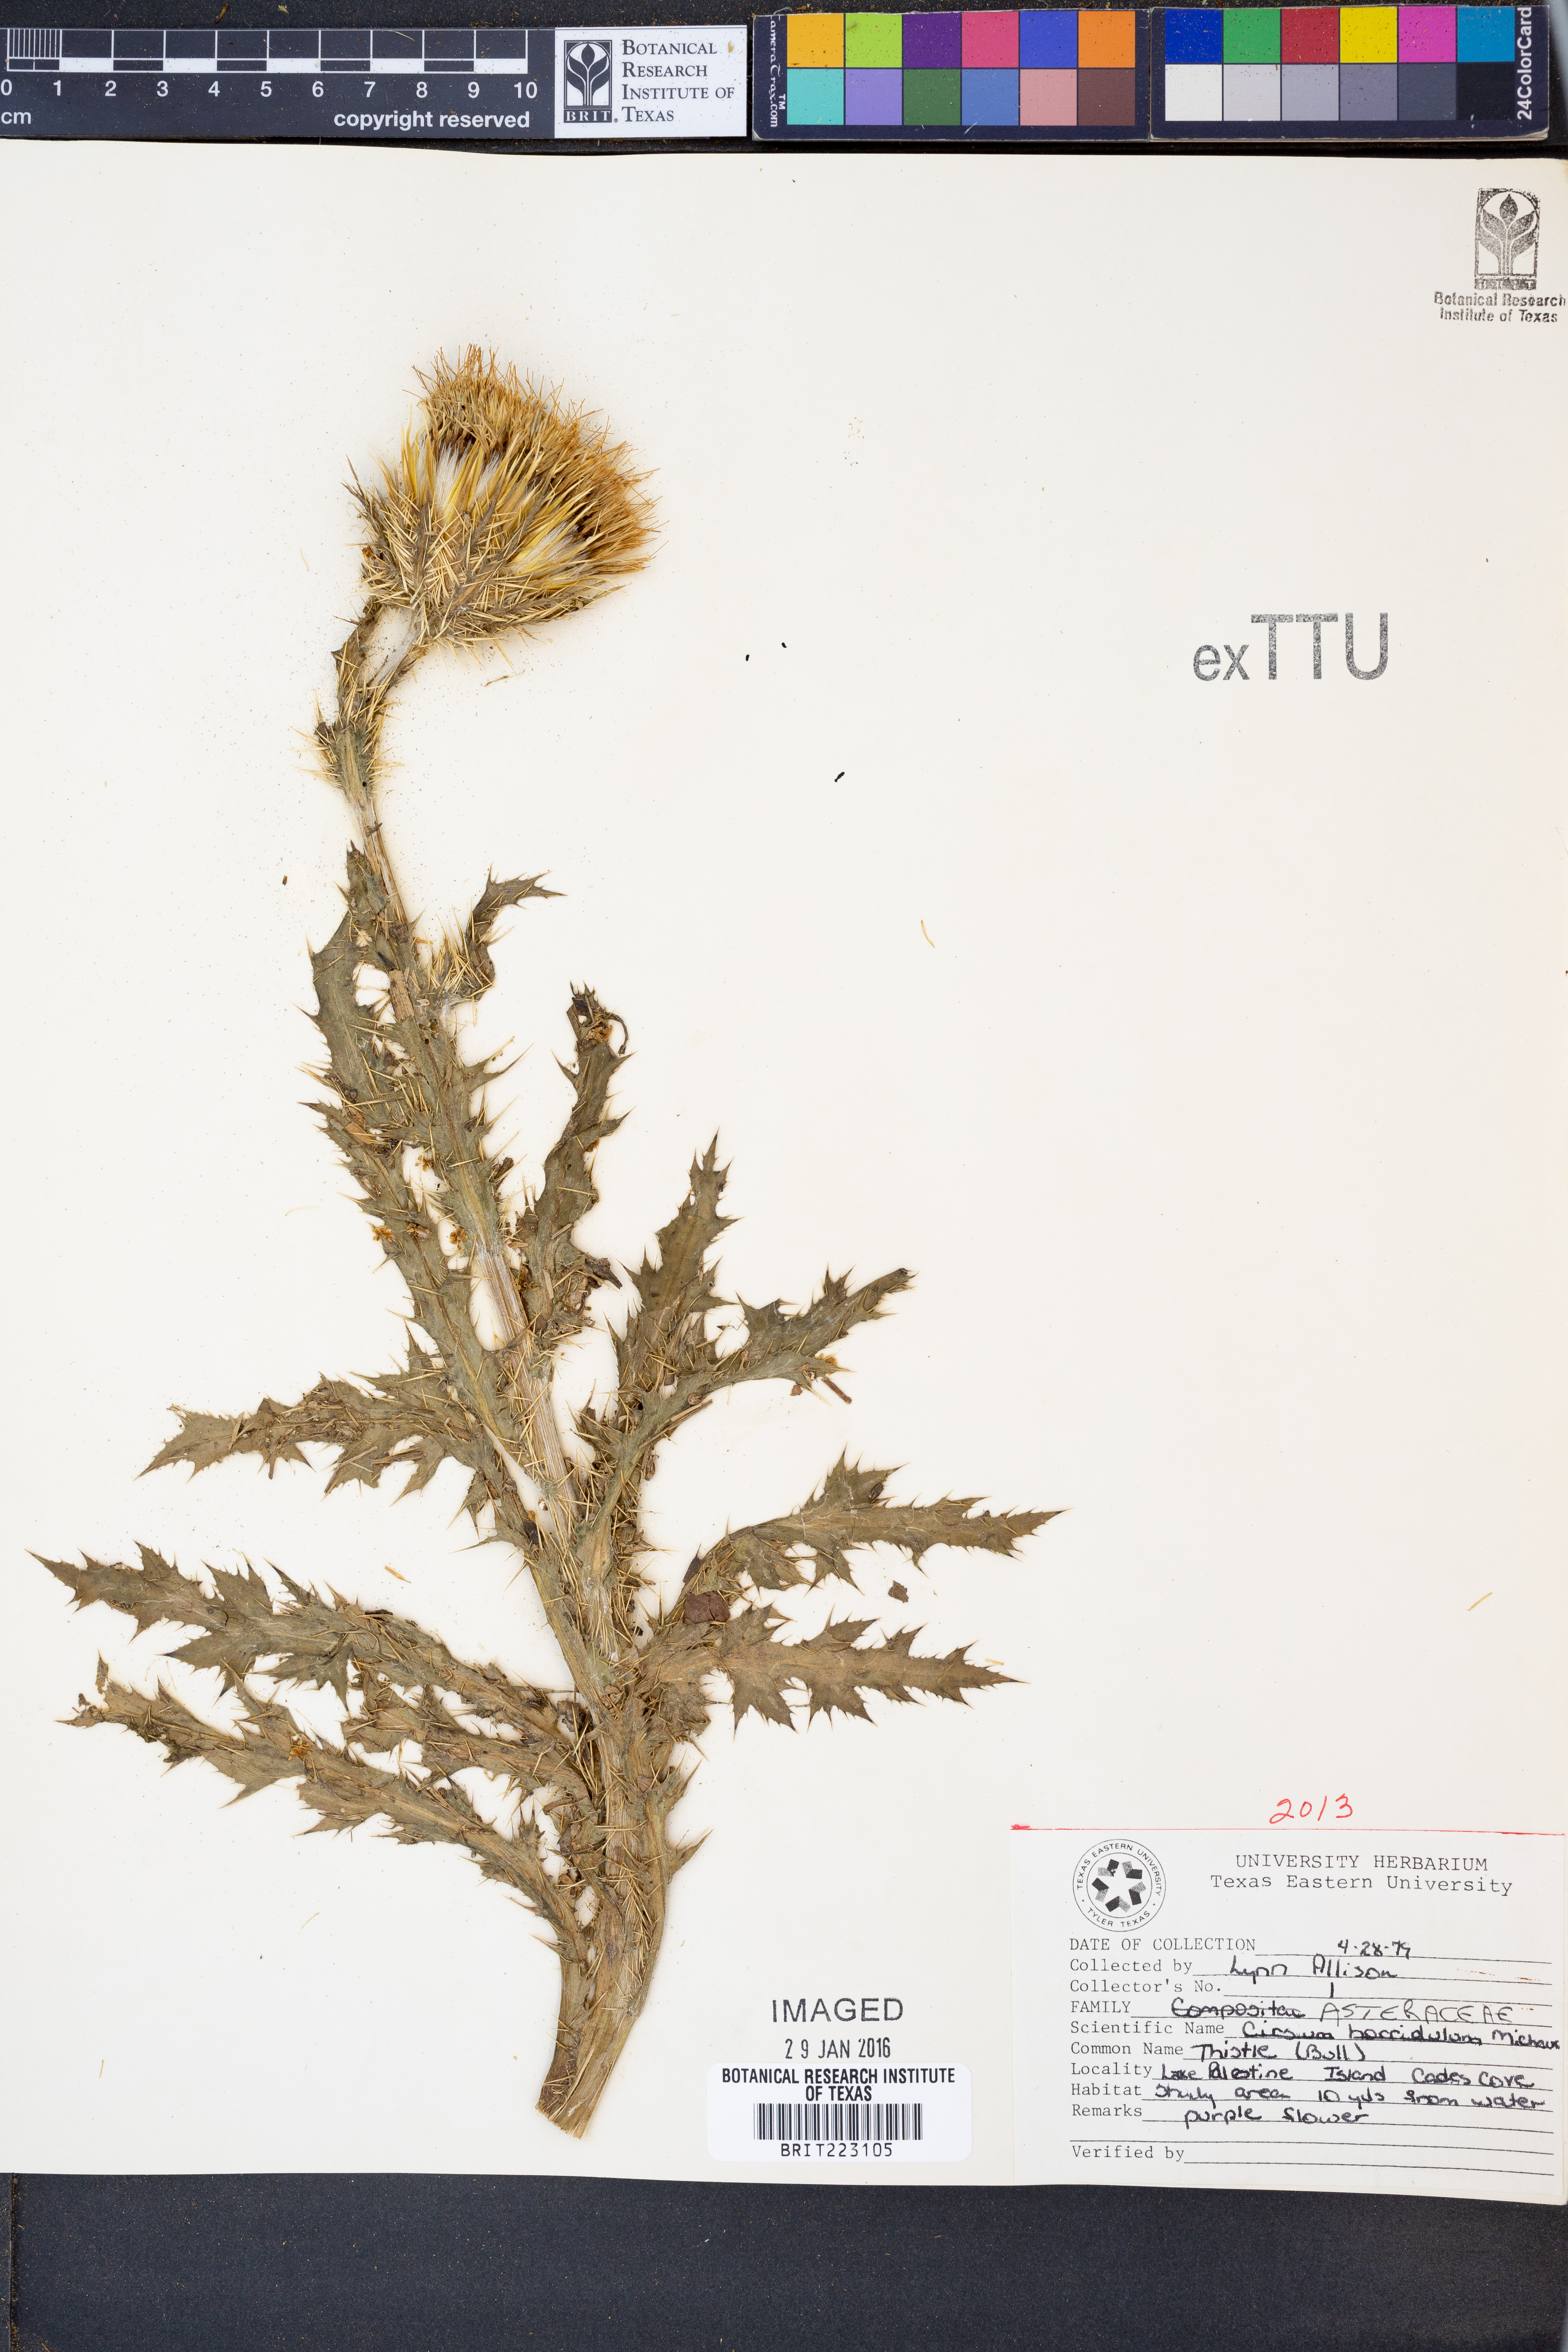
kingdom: Plantae
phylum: Tracheophyta
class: Magnoliopsida
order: Asterales
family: Asteraceae
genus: Cirsium
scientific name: Cirsium horridulum
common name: Bristly thistle
